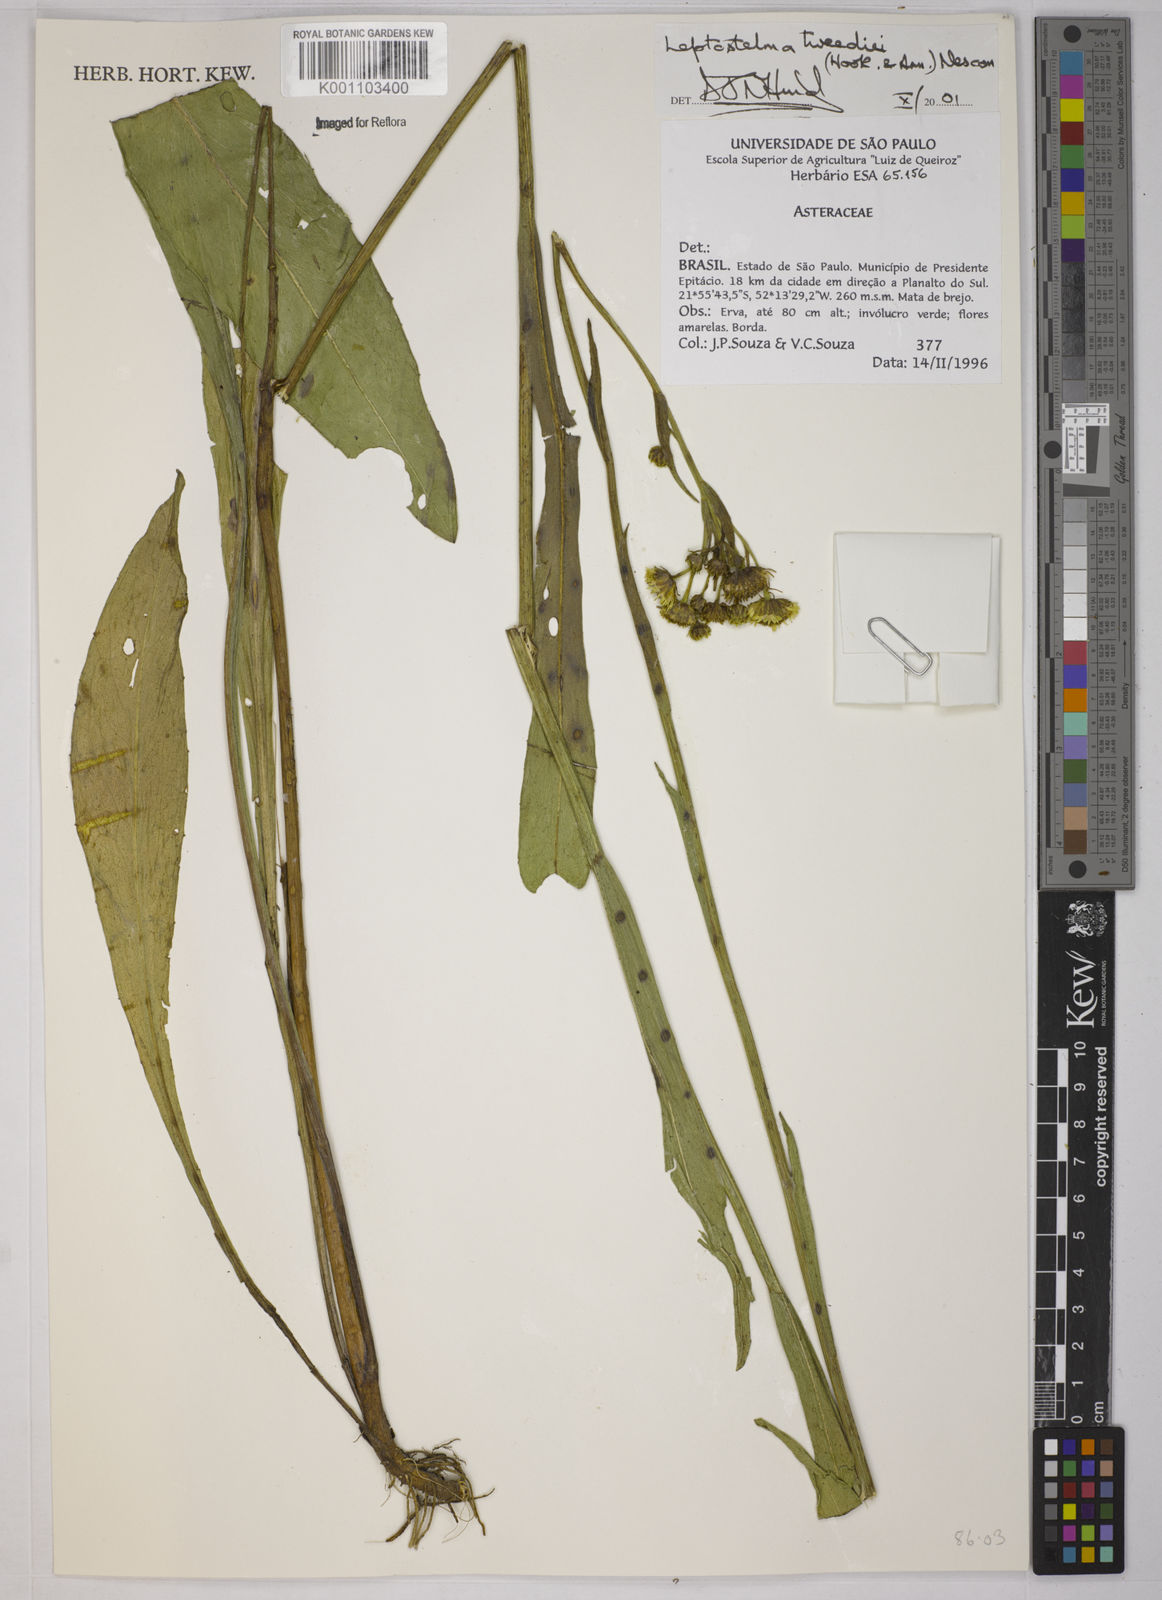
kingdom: Plantae
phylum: Tracheophyta
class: Magnoliopsida
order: Asterales
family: Asteraceae
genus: Leptostelma
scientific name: Leptostelma tweediei
